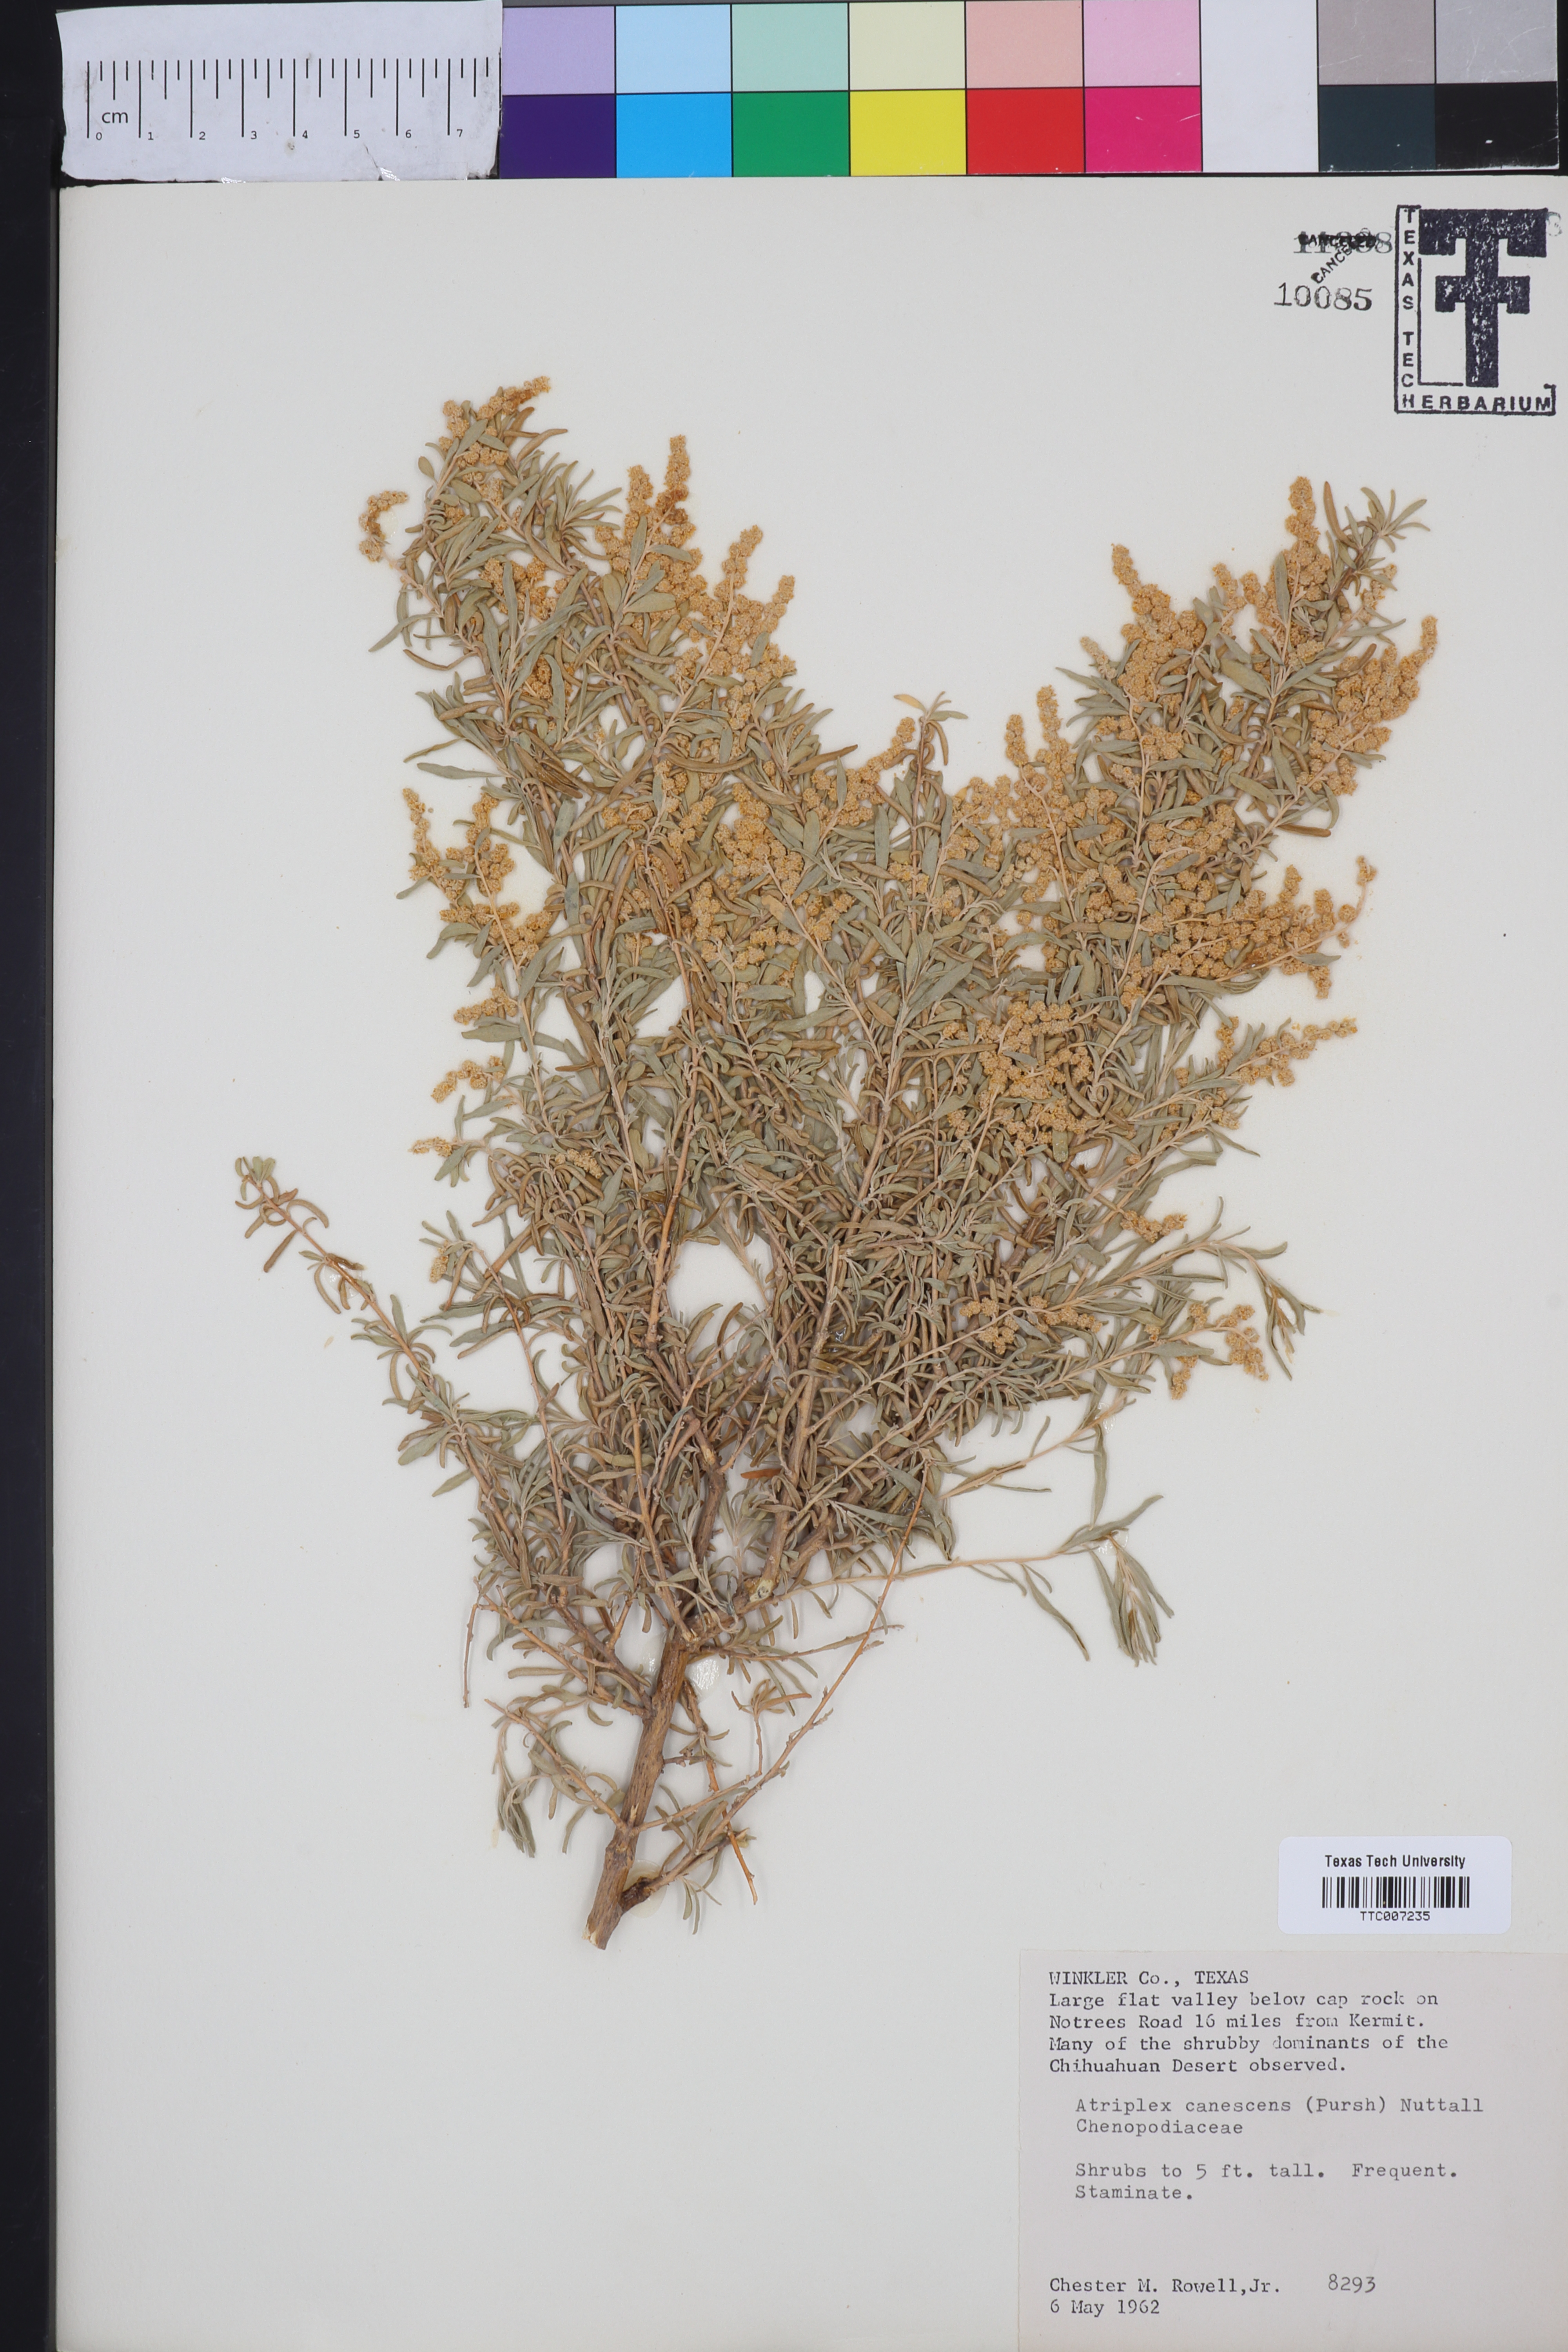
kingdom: Plantae
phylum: Tracheophyta
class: Magnoliopsida
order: Caryophyllales
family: Amaranthaceae
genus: Atriplex
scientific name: Atriplex canescens
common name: Four-wing saltbush
